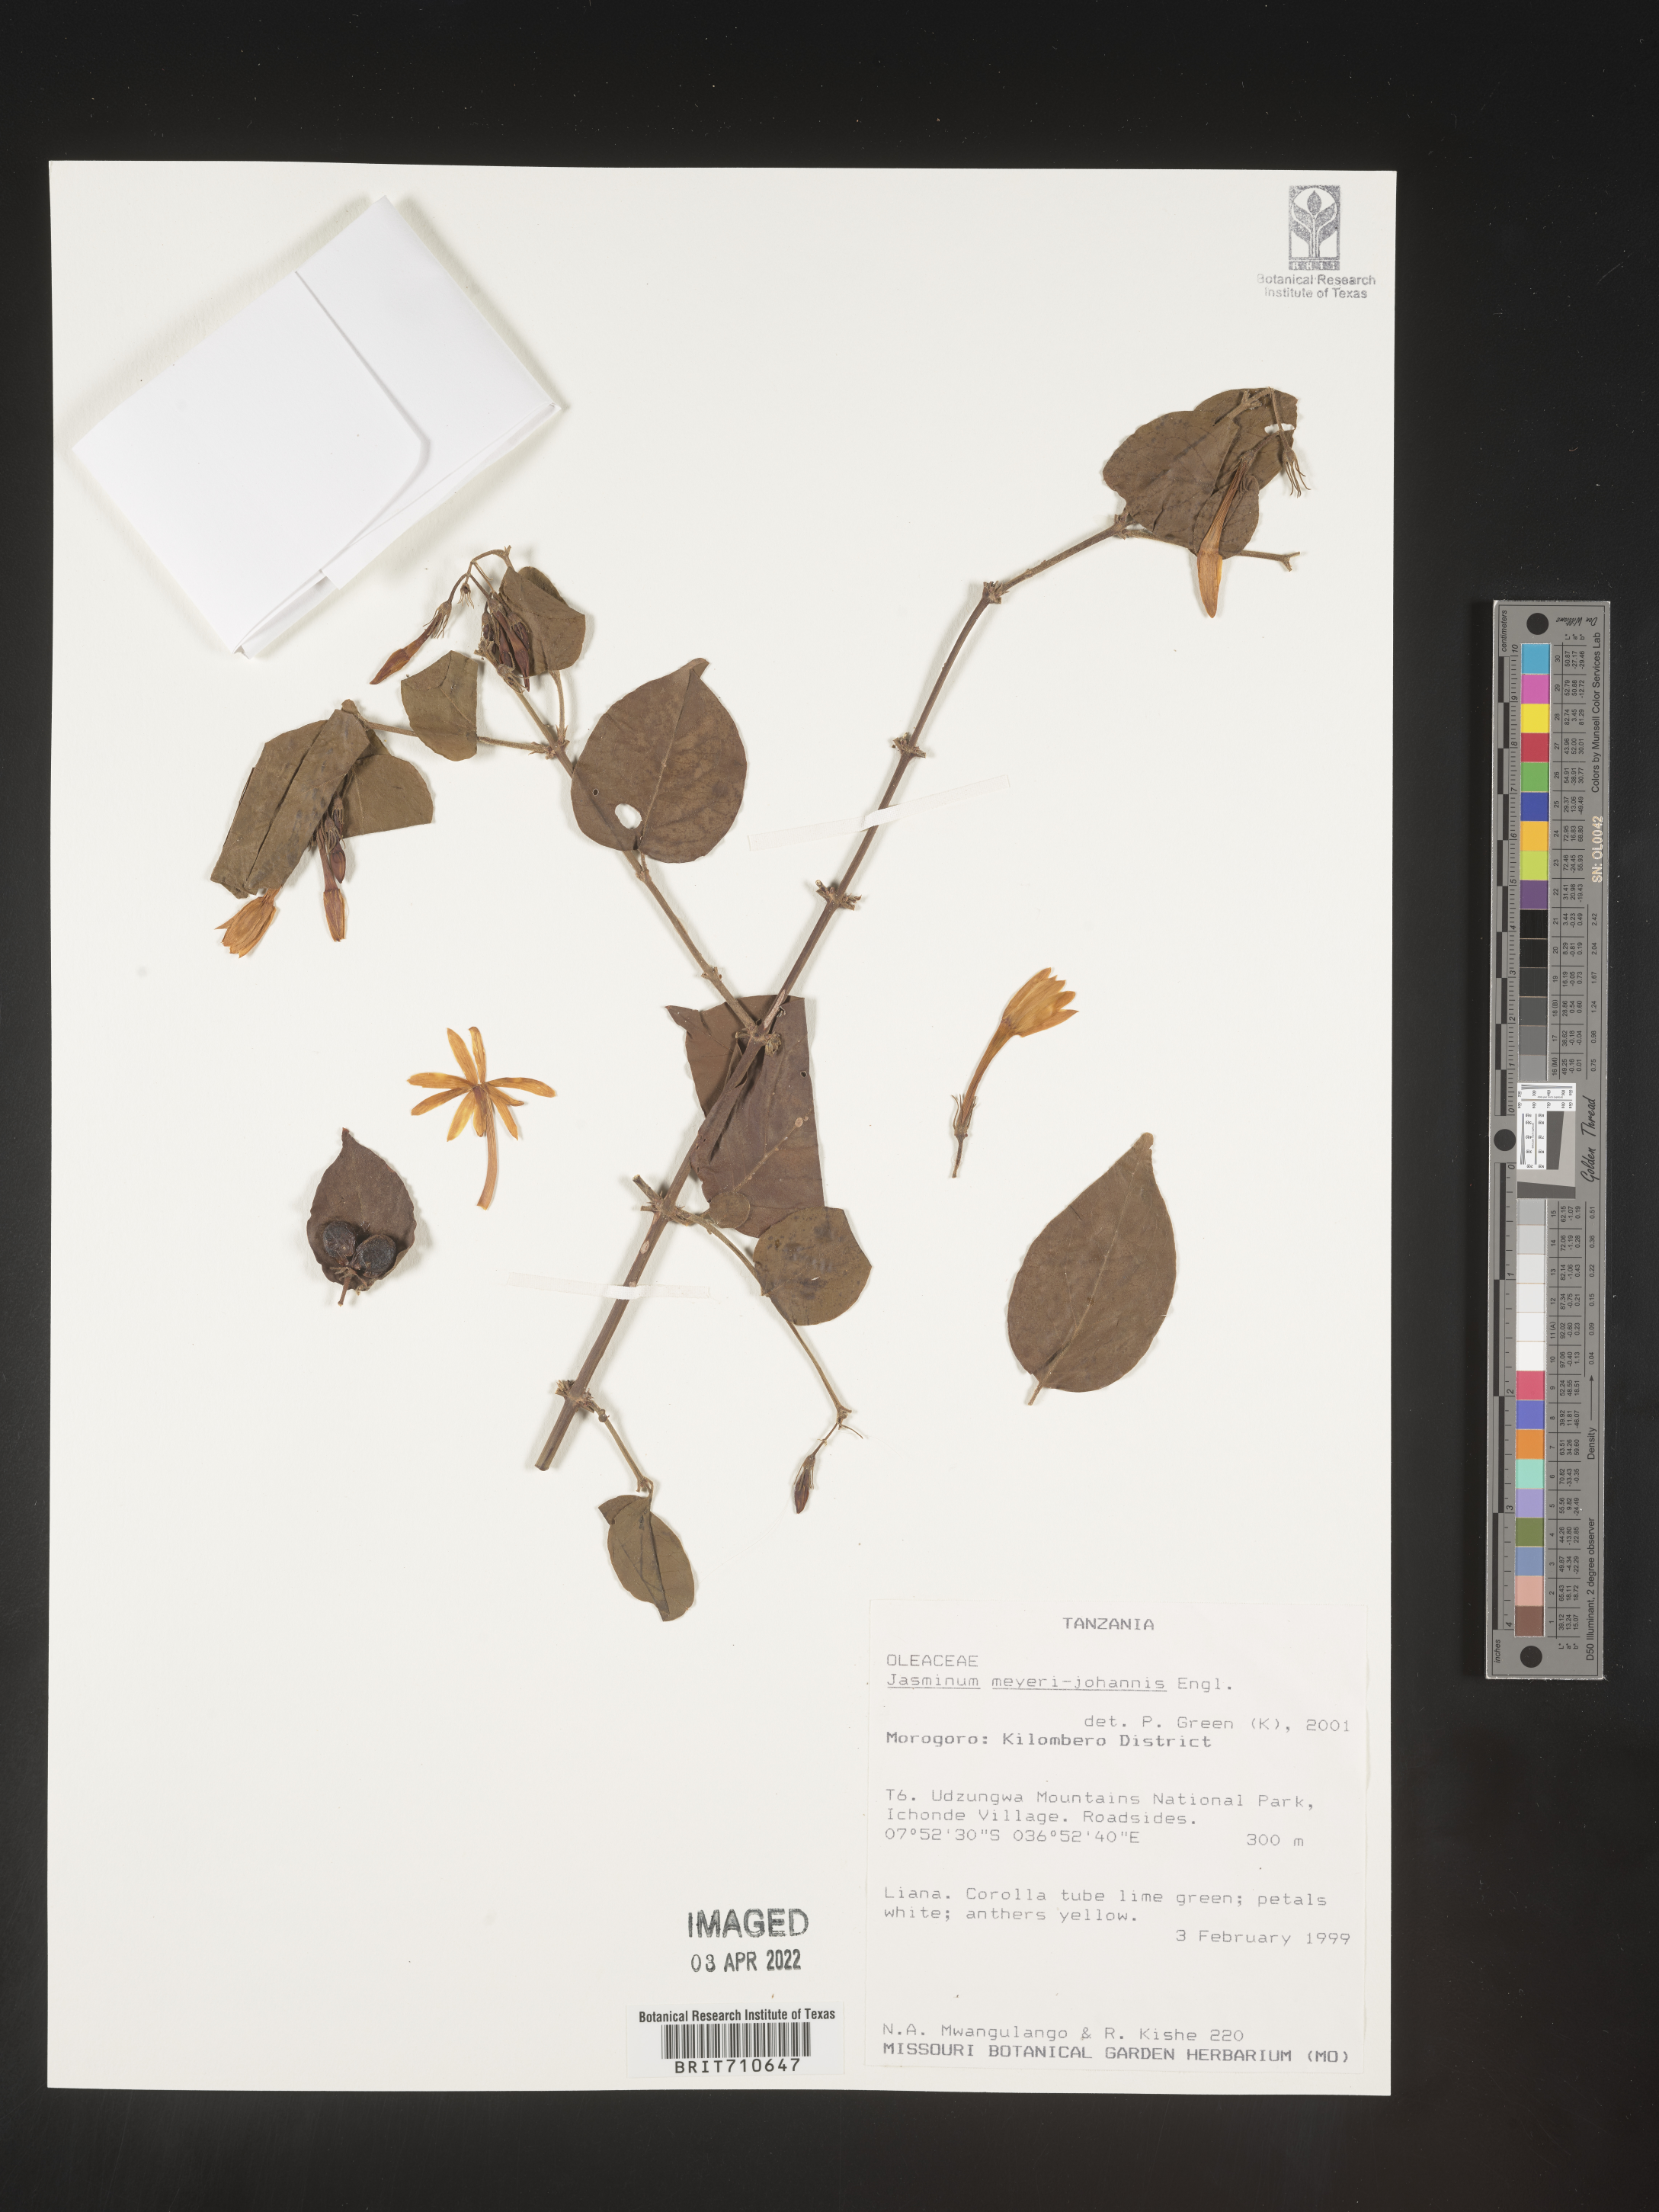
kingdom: Plantae
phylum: Tracheophyta
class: Magnoliopsida
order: Lamiales
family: Oleaceae
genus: Jasminum
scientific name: Jasminum
